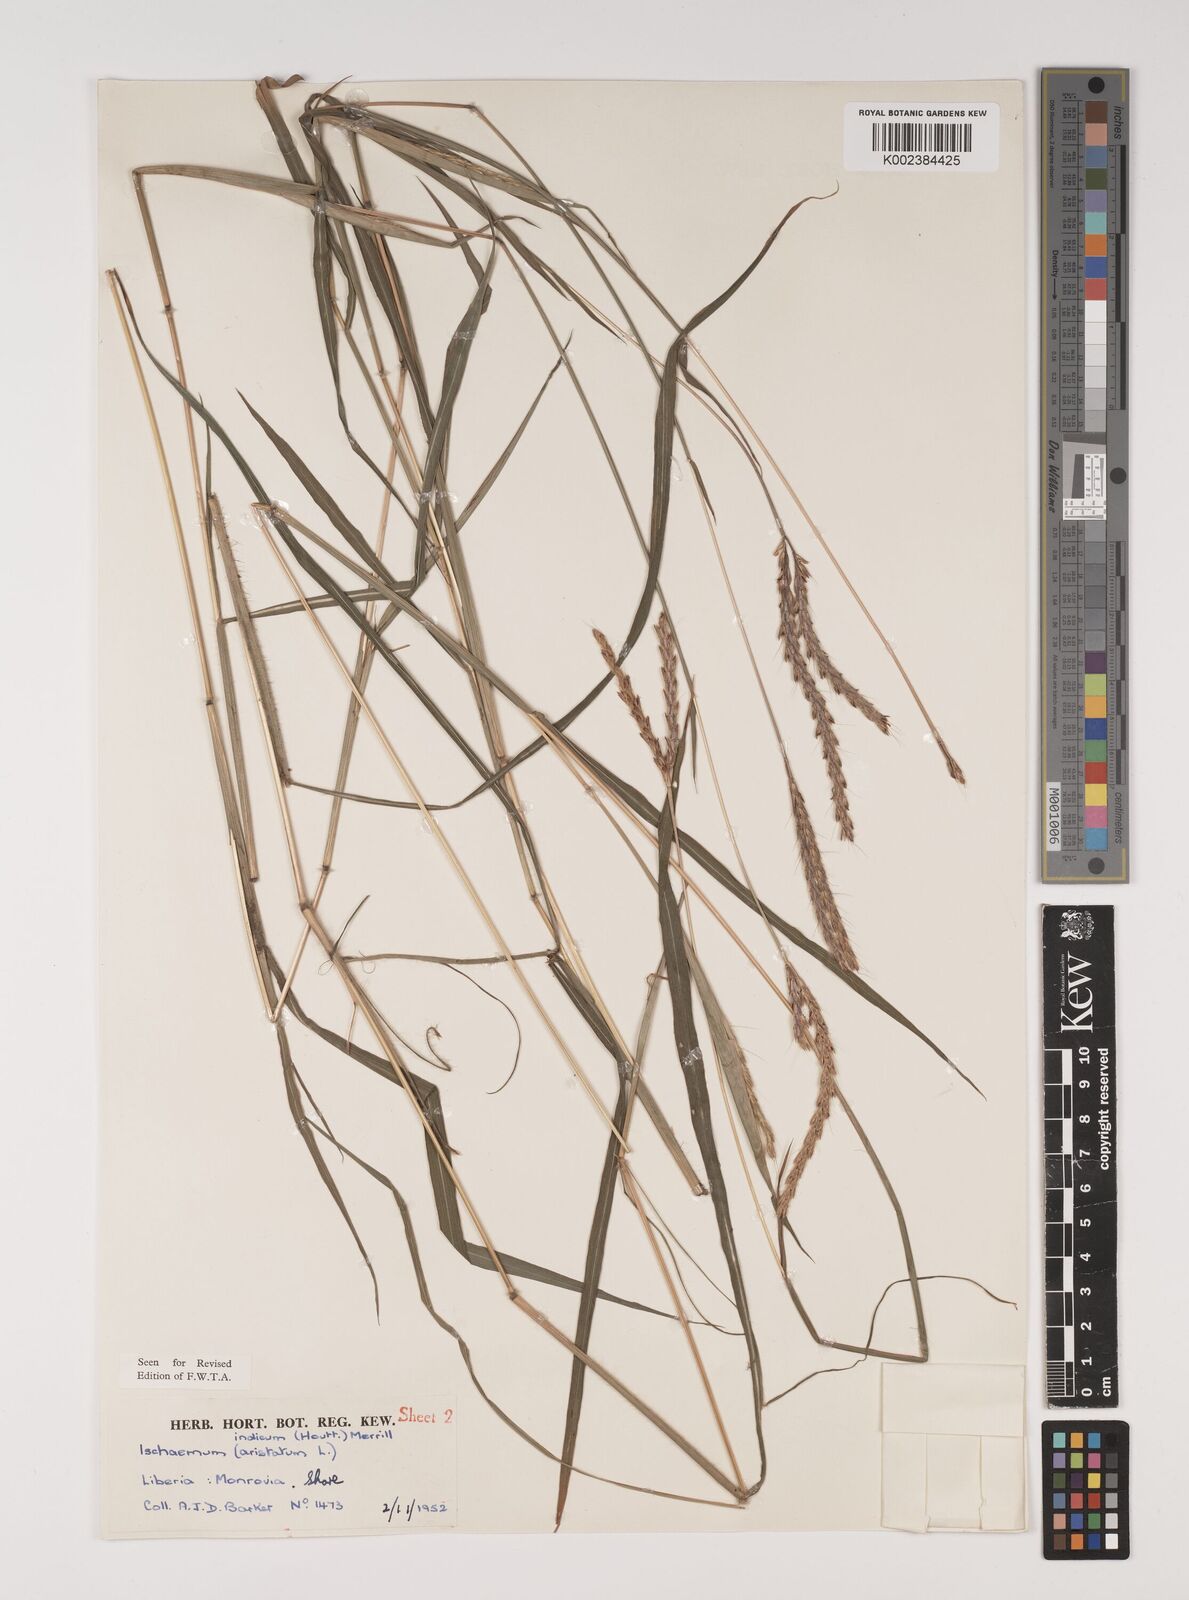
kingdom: Plantae
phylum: Tracheophyta
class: Liliopsida
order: Poales
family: Poaceae
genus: Polytrias
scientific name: Polytrias indica
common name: Indian murainagrass
